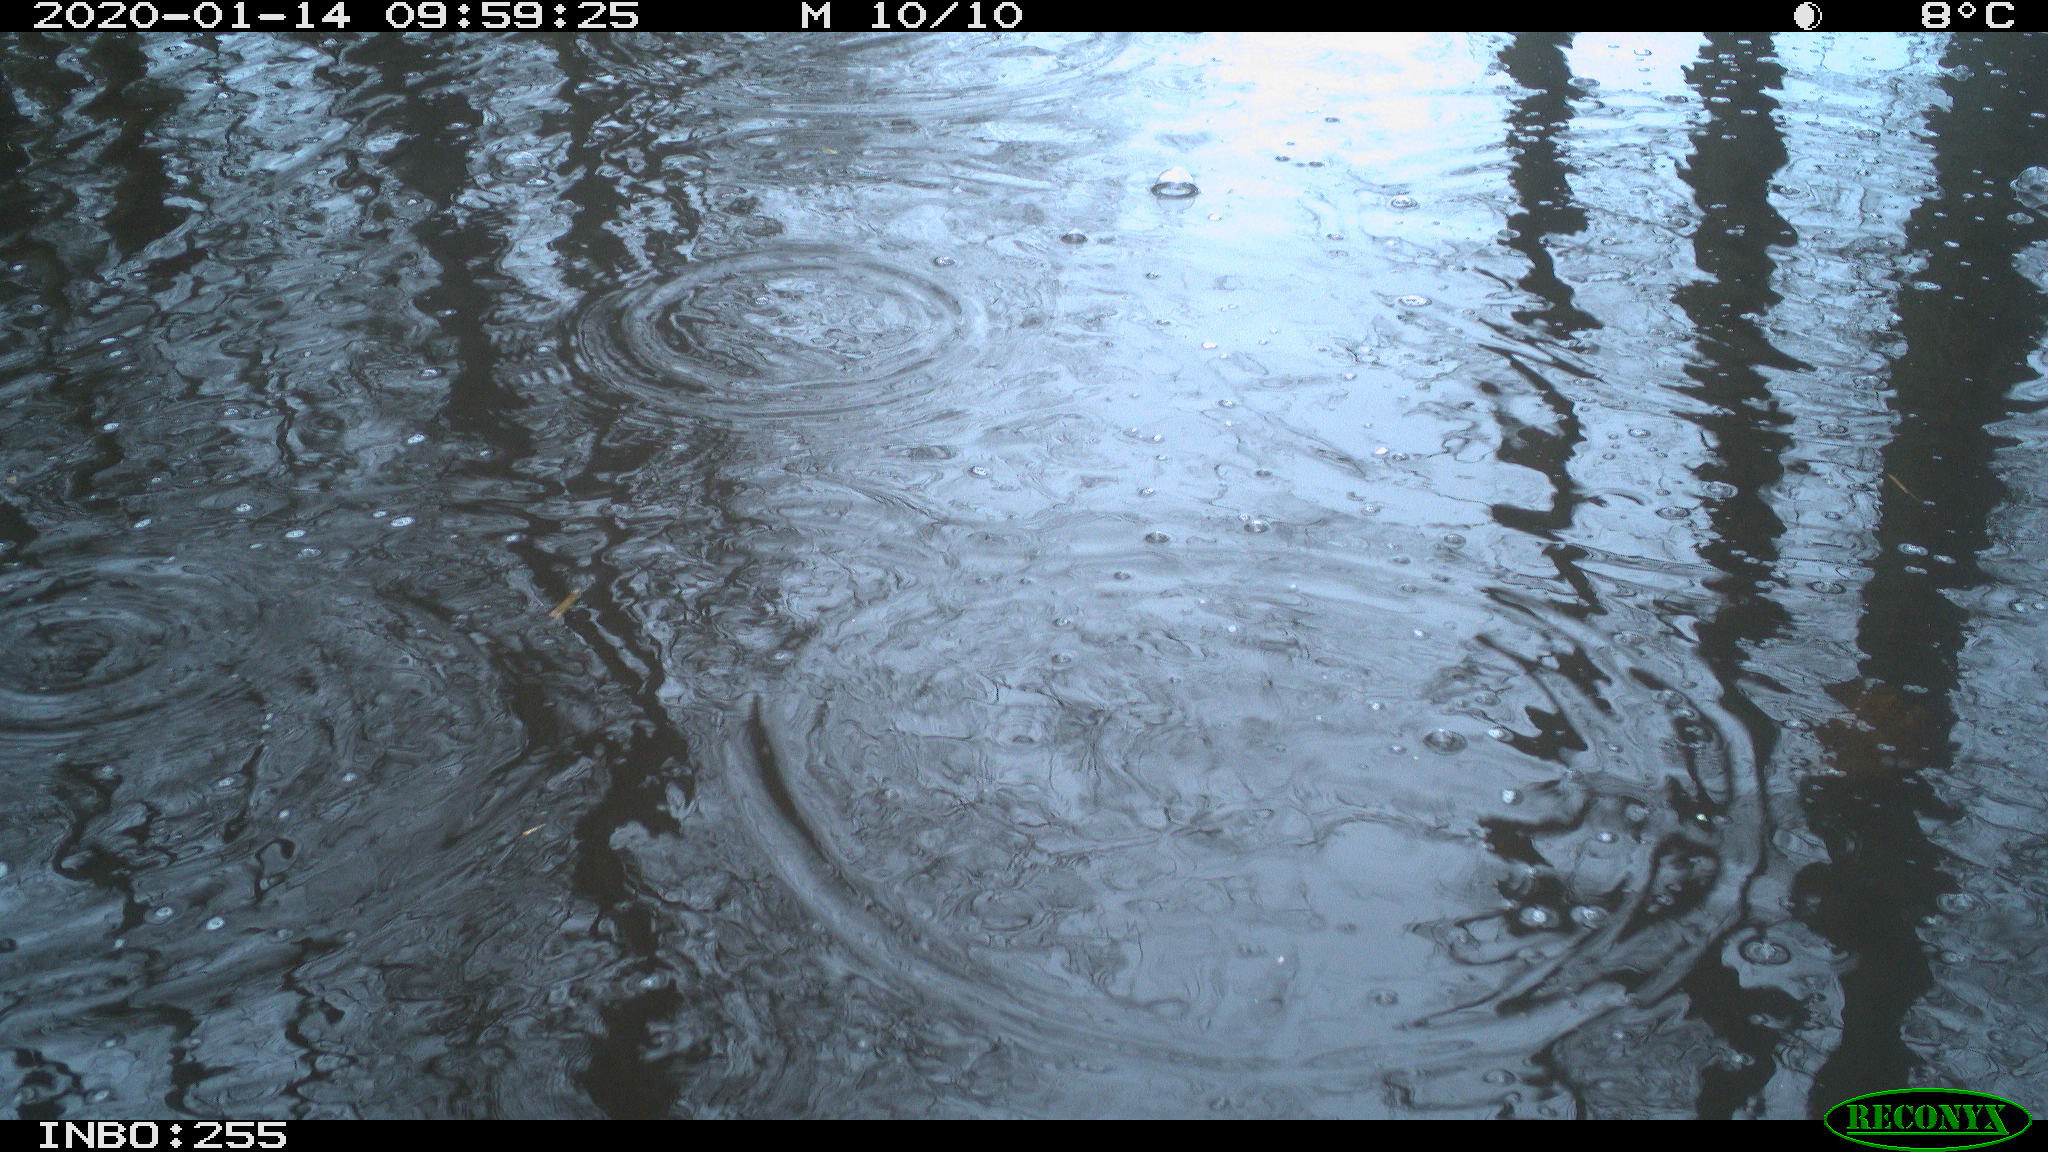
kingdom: Animalia
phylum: Chordata
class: Aves
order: Anseriformes
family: Anatidae
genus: Anas
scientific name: Anas platyrhynchos
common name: Mallard
